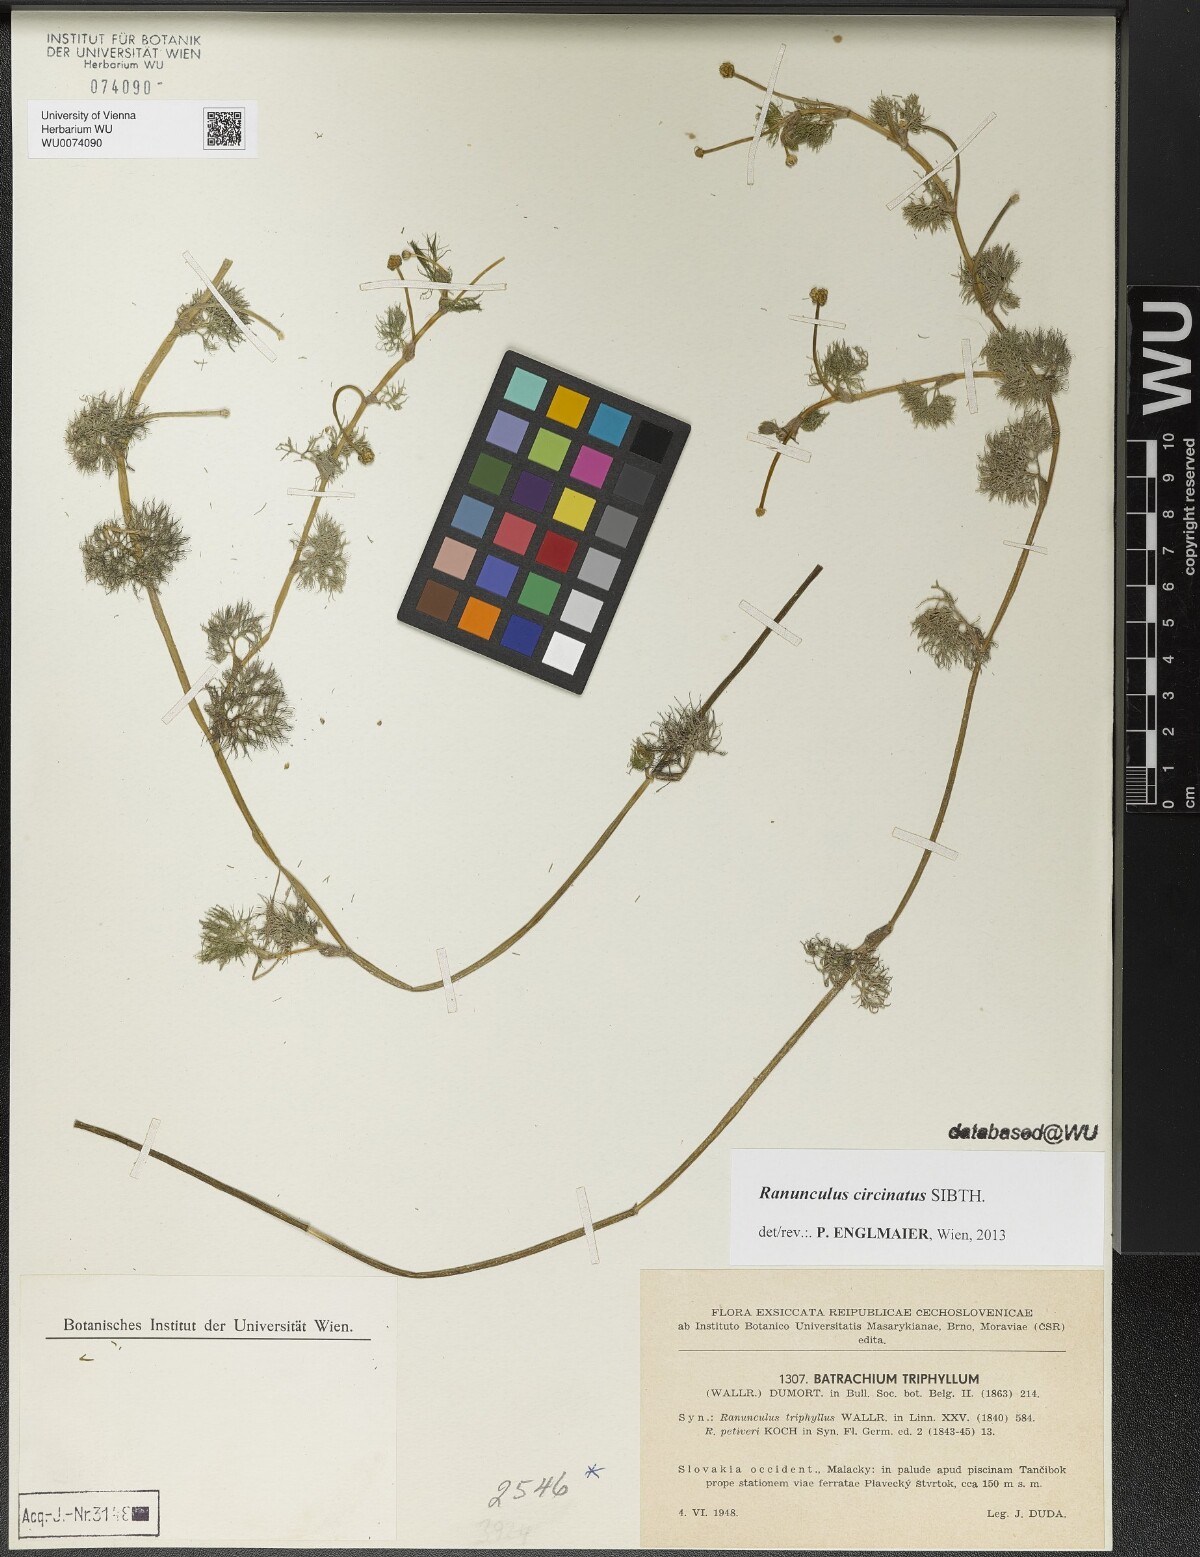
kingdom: Plantae
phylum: Tracheophyta
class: Magnoliopsida
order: Ranunculales
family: Ranunculaceae
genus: Ranunculus
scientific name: Ranunculus circinatus
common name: Fan-leaved water-crowfoot
